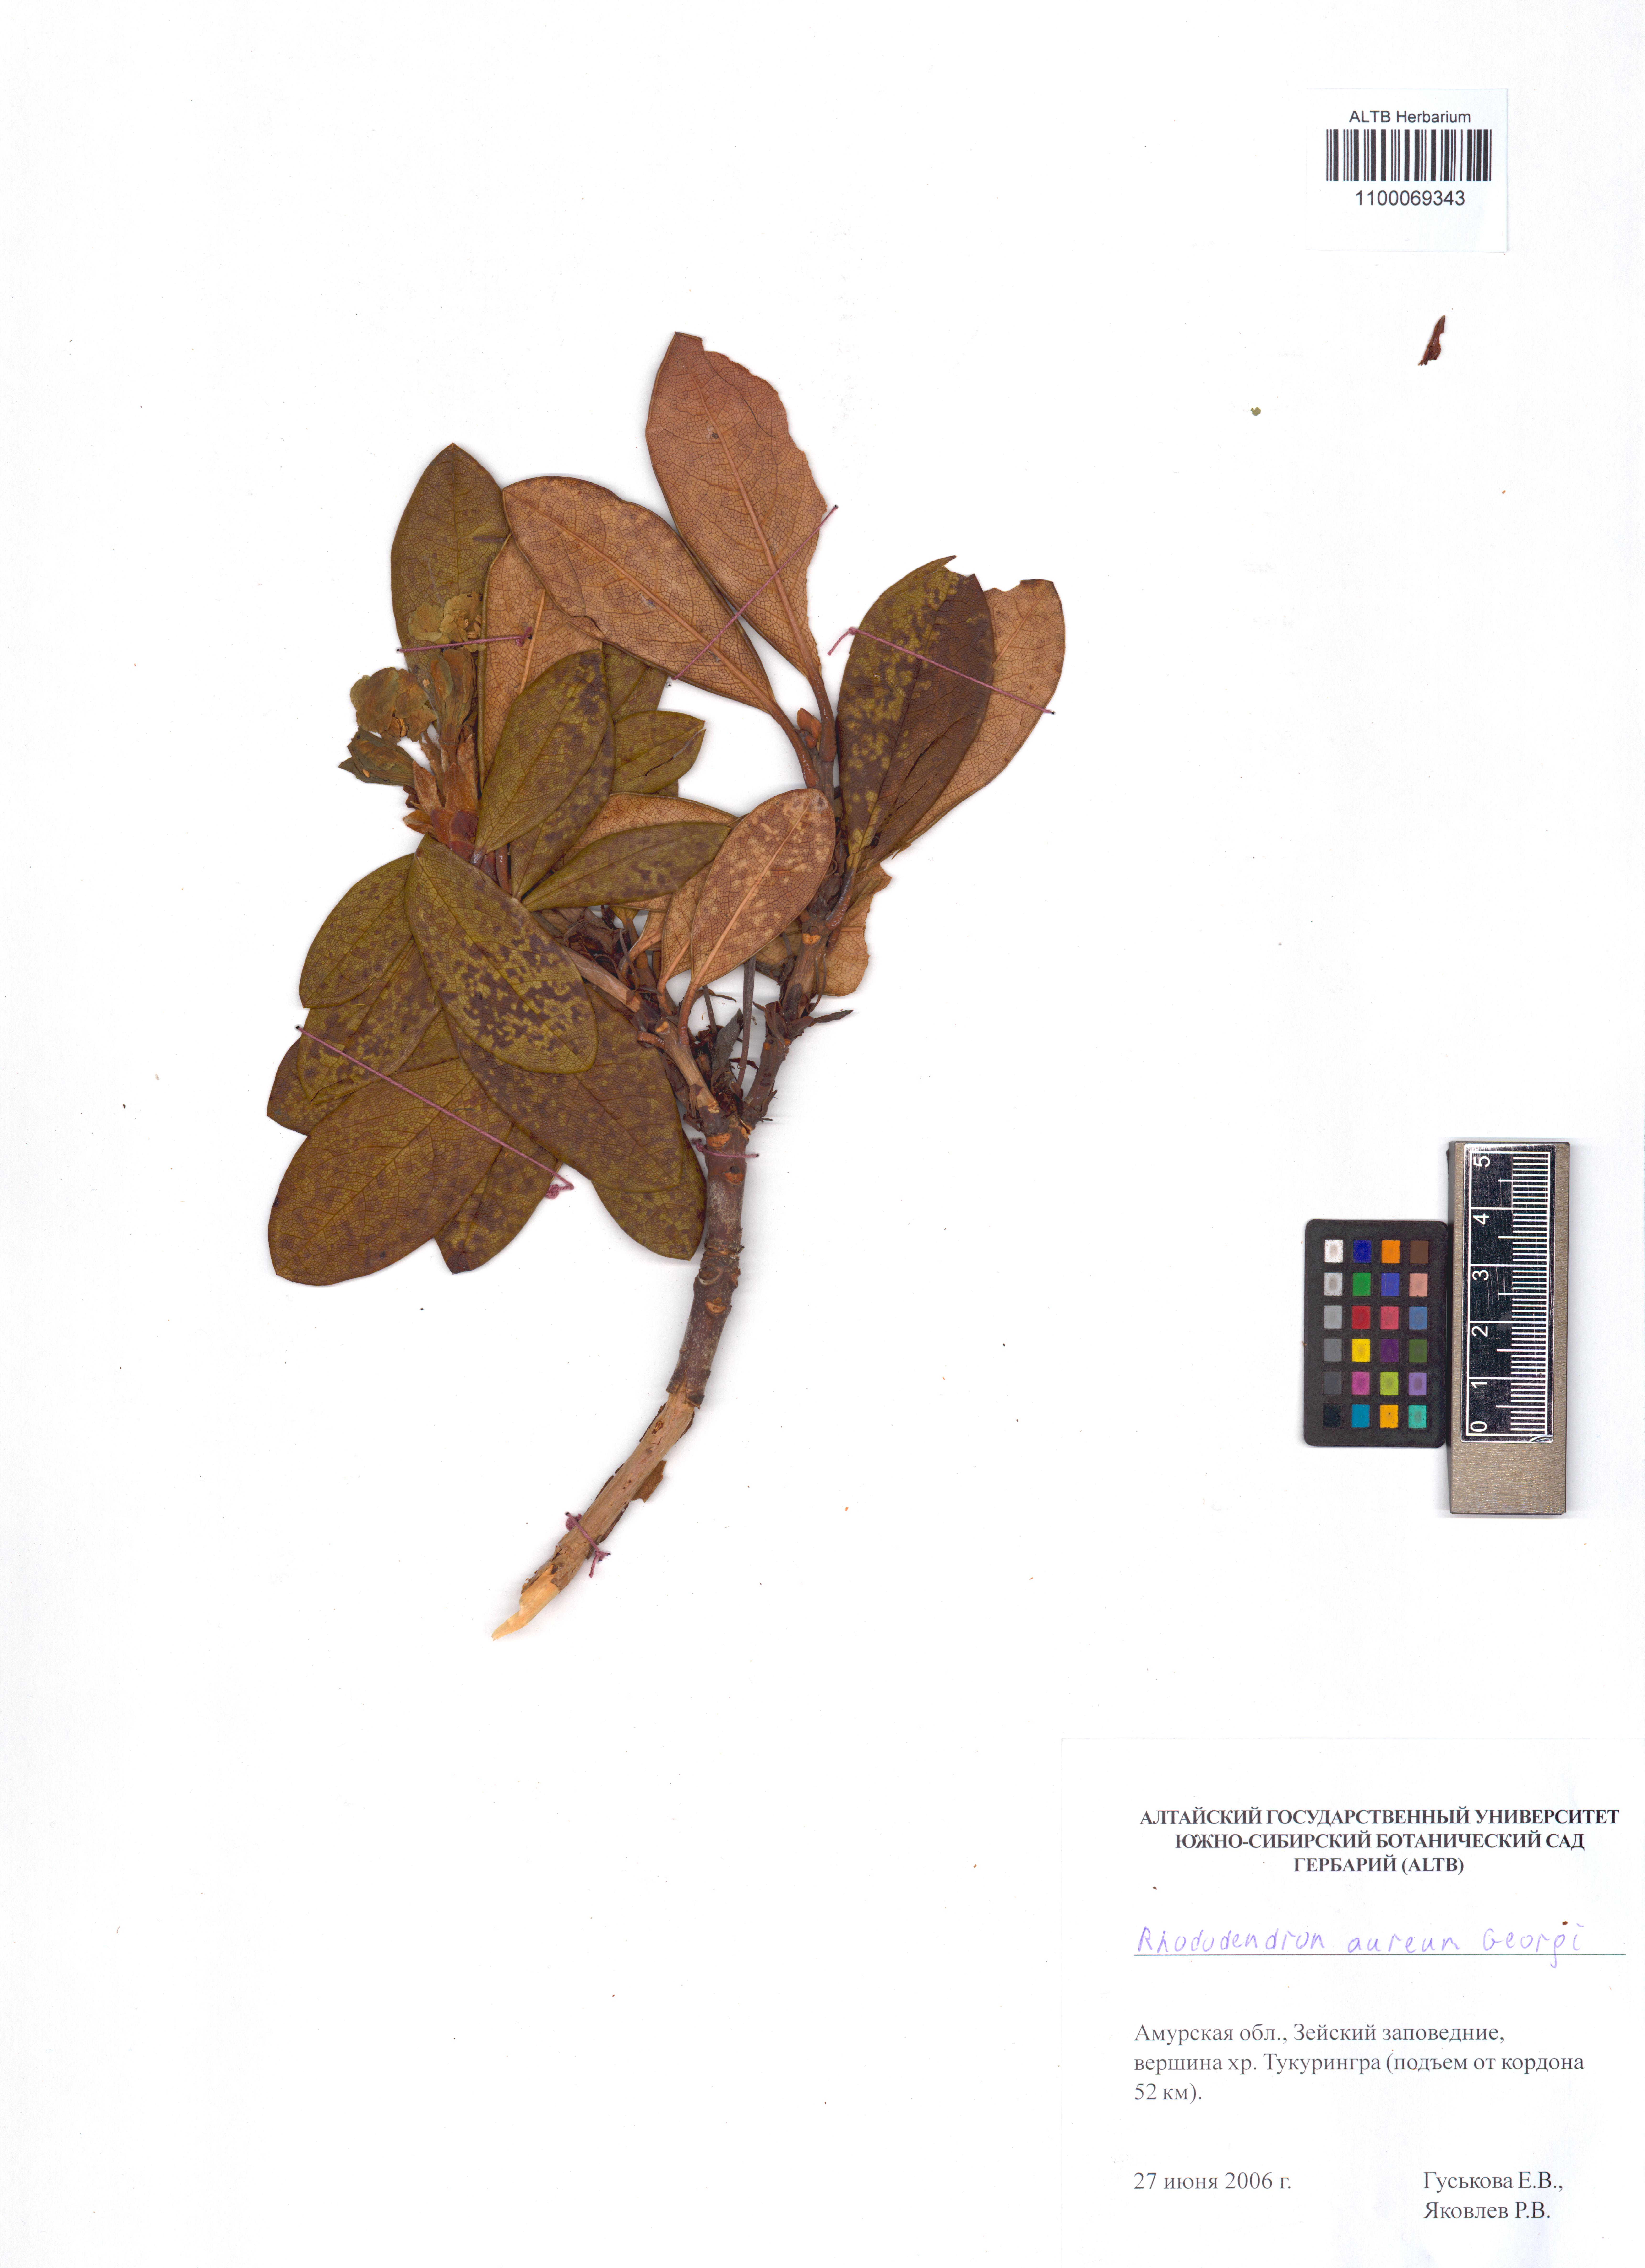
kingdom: Plantae
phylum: Tracheophyta
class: Magnoliopsida
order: Ericales
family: Ericaceae
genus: Rhododendron
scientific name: Rhododendron aureum
